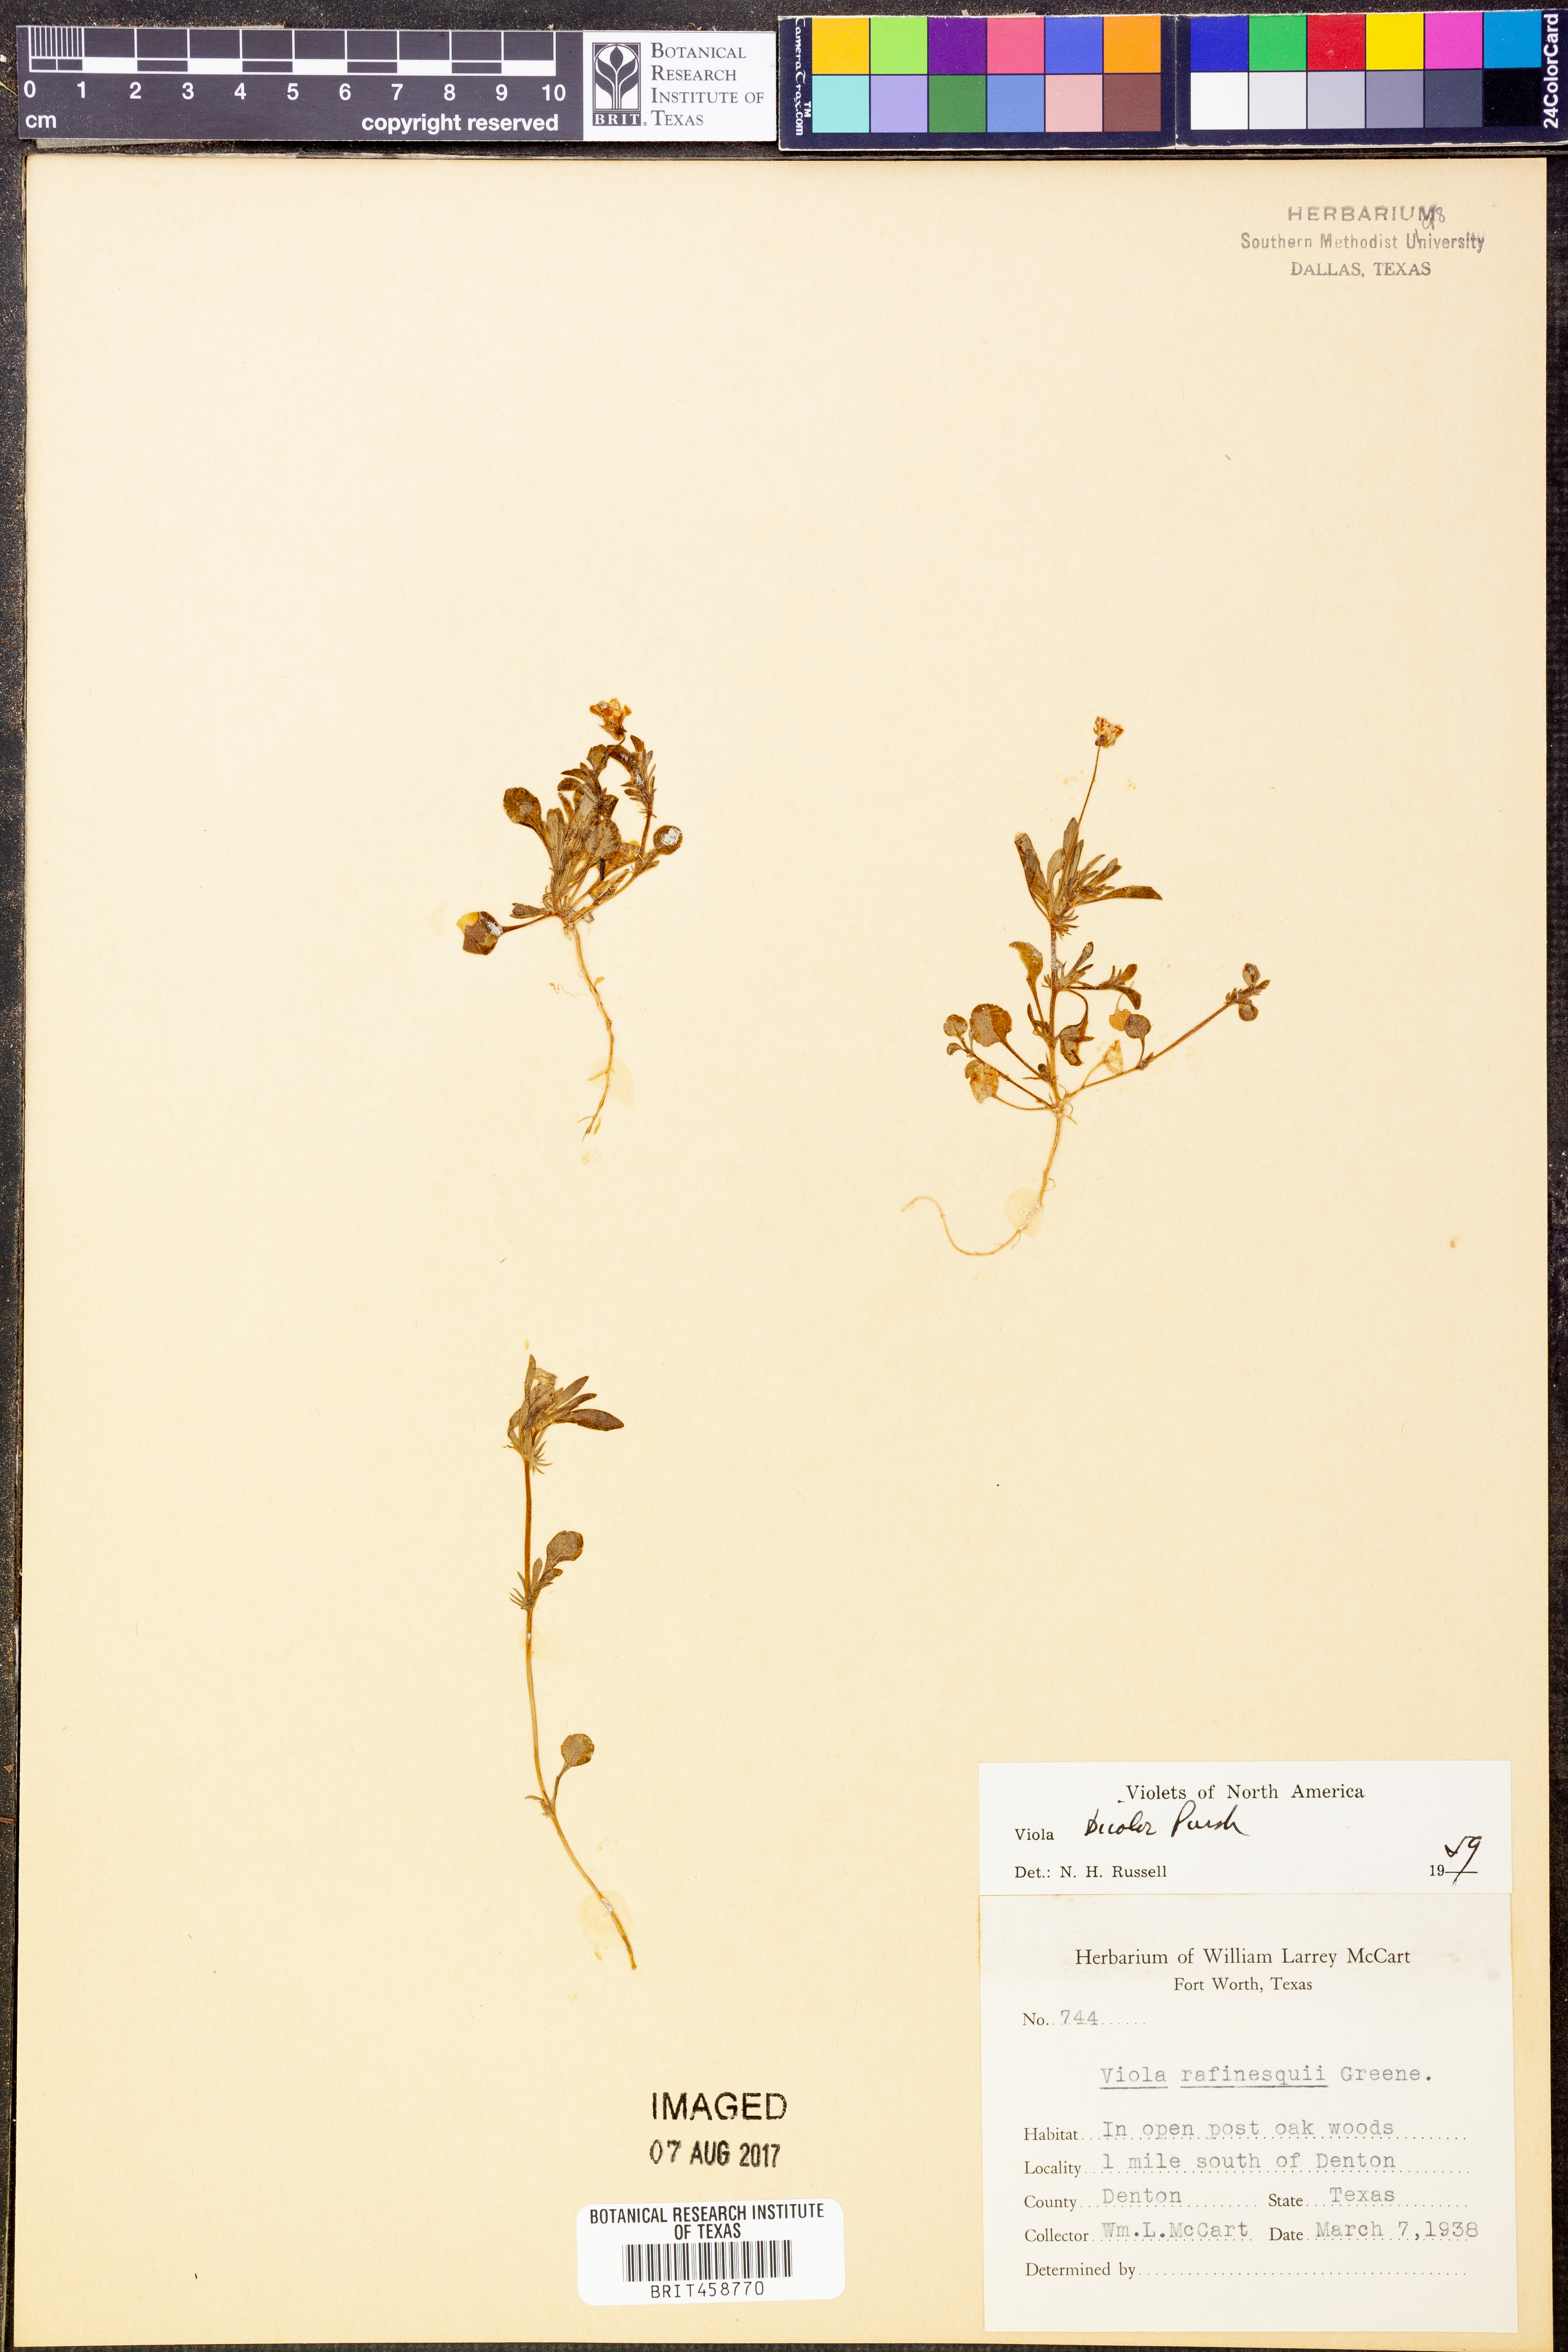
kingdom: Plantae
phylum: Tracheophyta
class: Magnoliopsida
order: Malpighiales
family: Violaceae
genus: Viola
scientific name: Viola rafinesquei
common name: American field pansy
